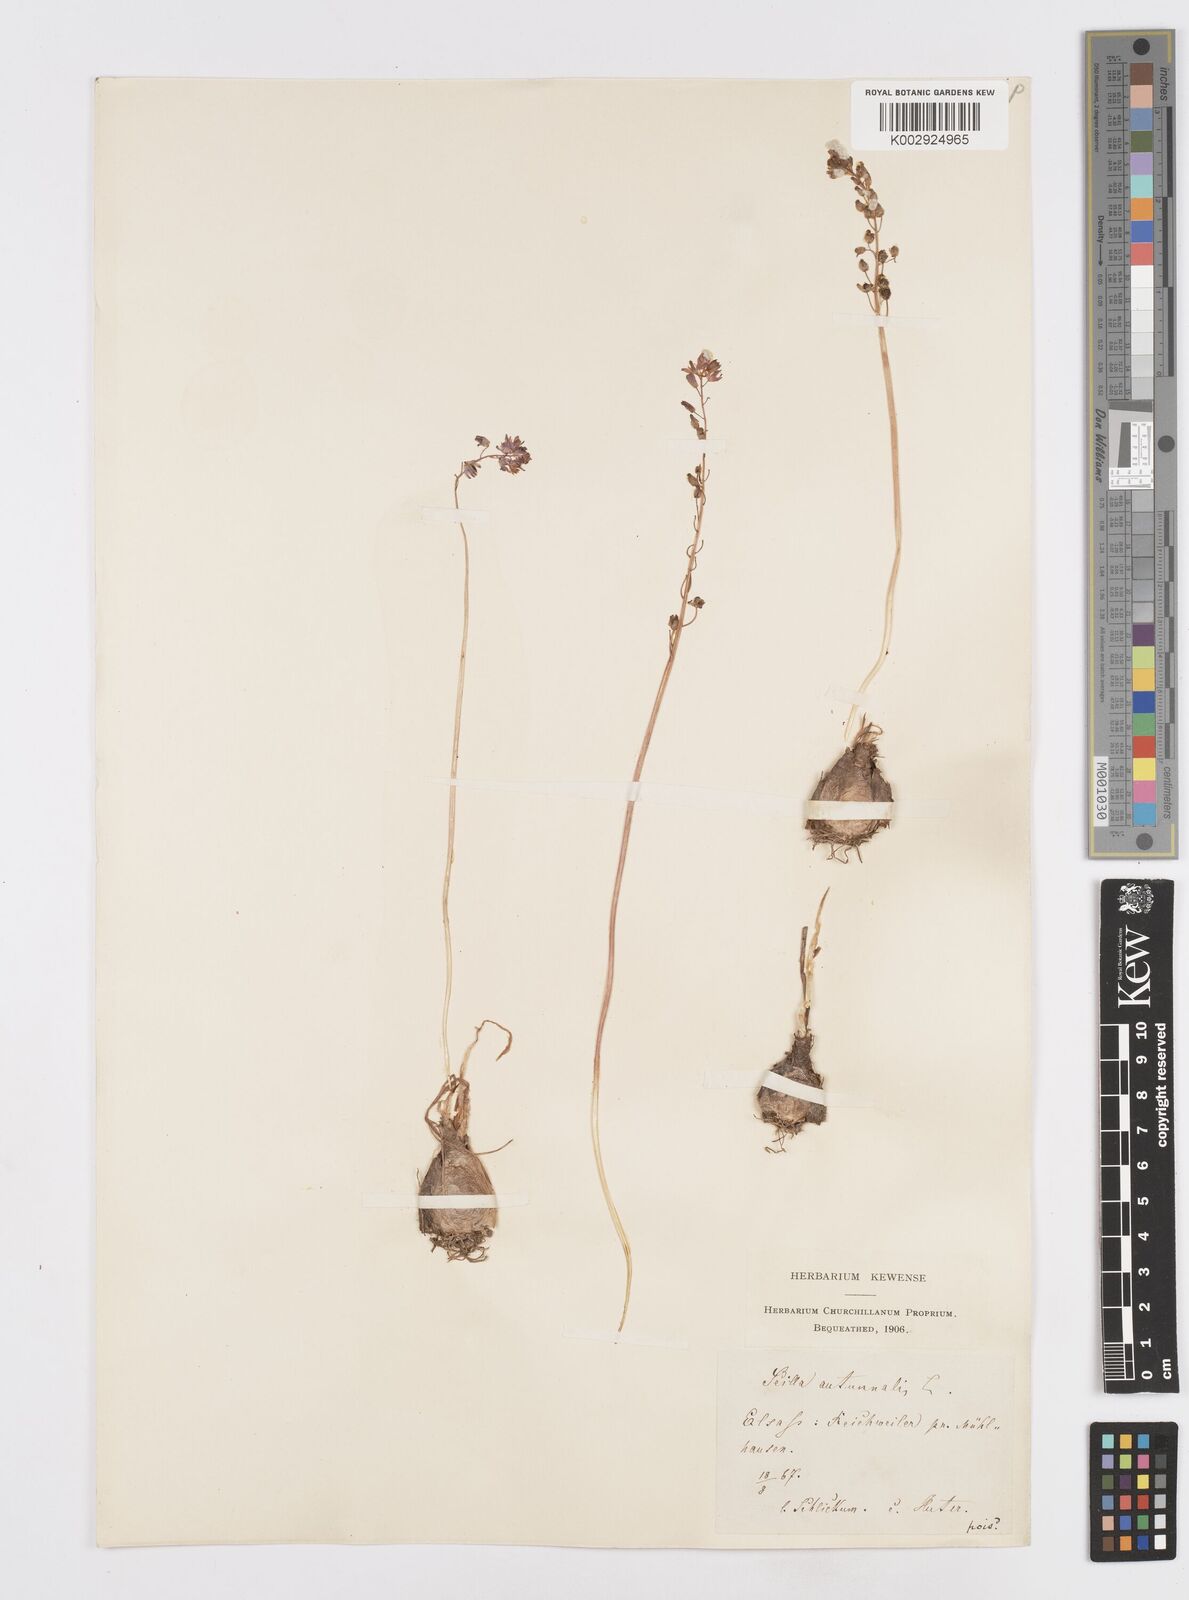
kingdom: Plantae
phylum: Tracheophyta
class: Liliopsida
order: Asparagales
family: Asparagaceae
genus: Prospero
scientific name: Prospero autumnale
